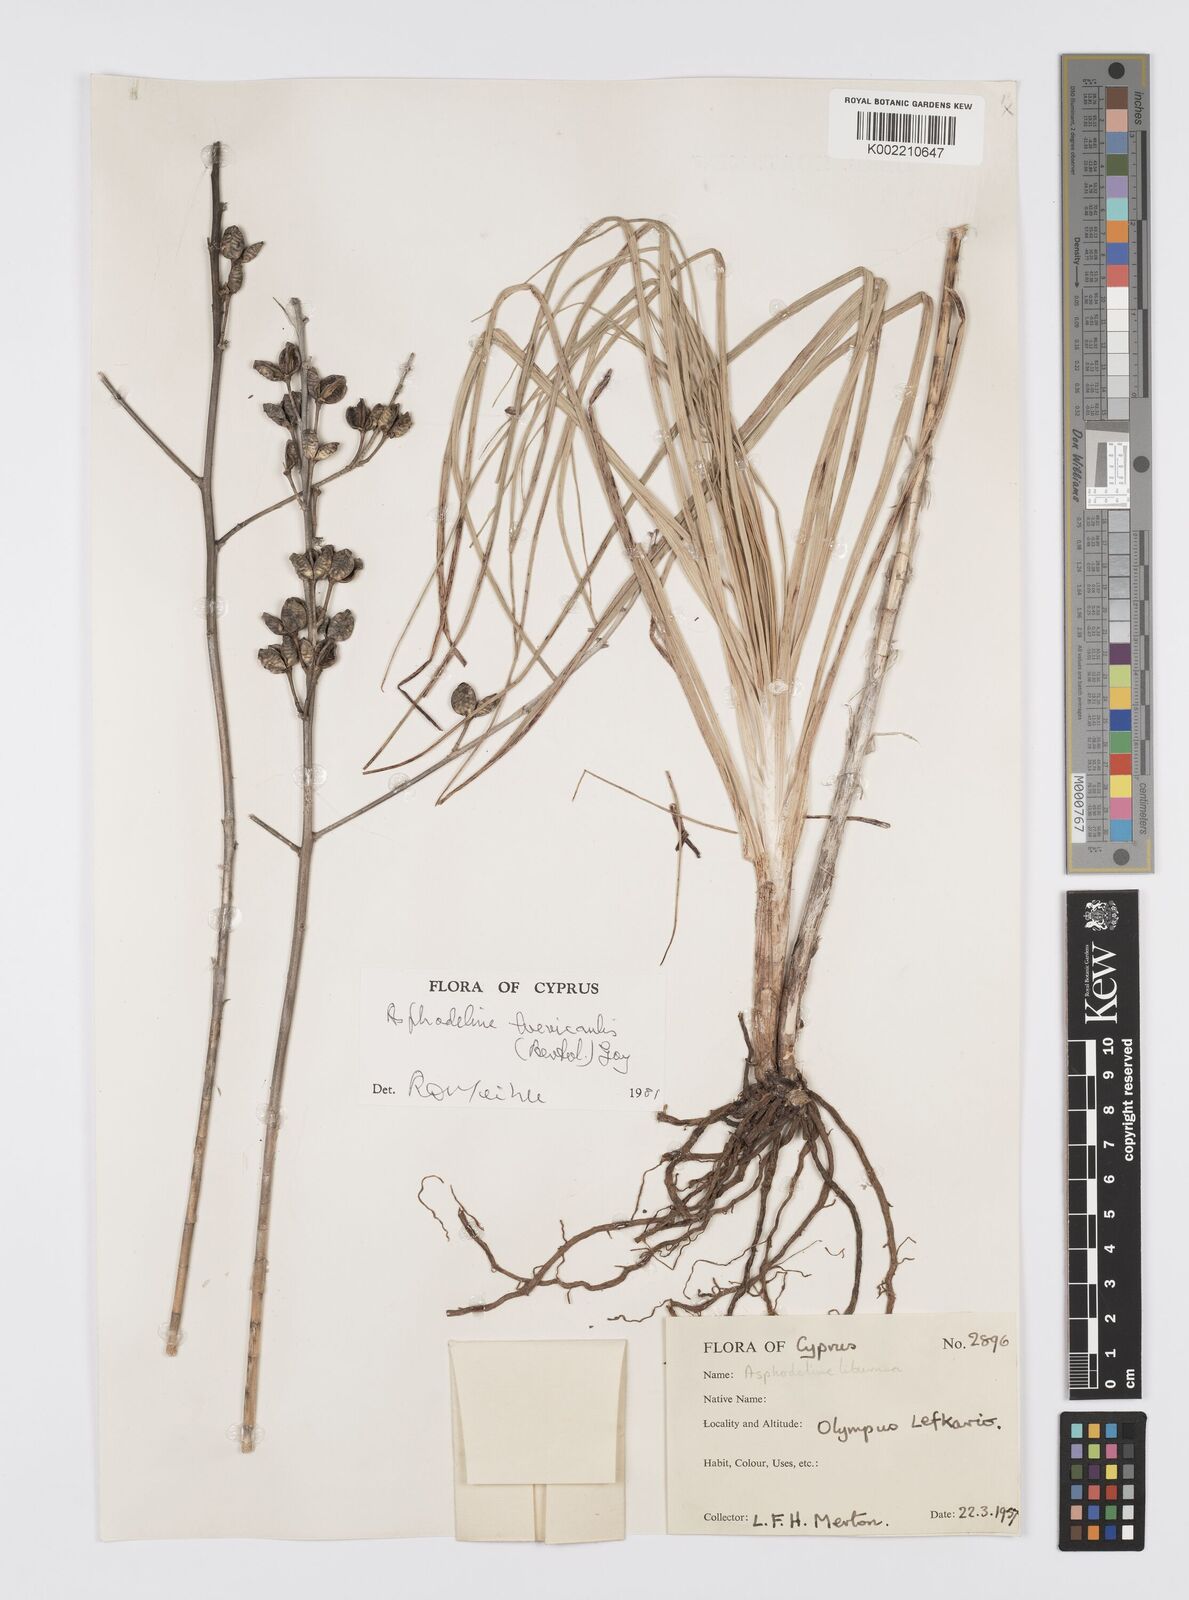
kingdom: Plantae
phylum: Tracheophyta
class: Liliopsida
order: Asparagales
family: Asphodelaceae
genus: Asphodeline
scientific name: Asphodeline brevicaulis
